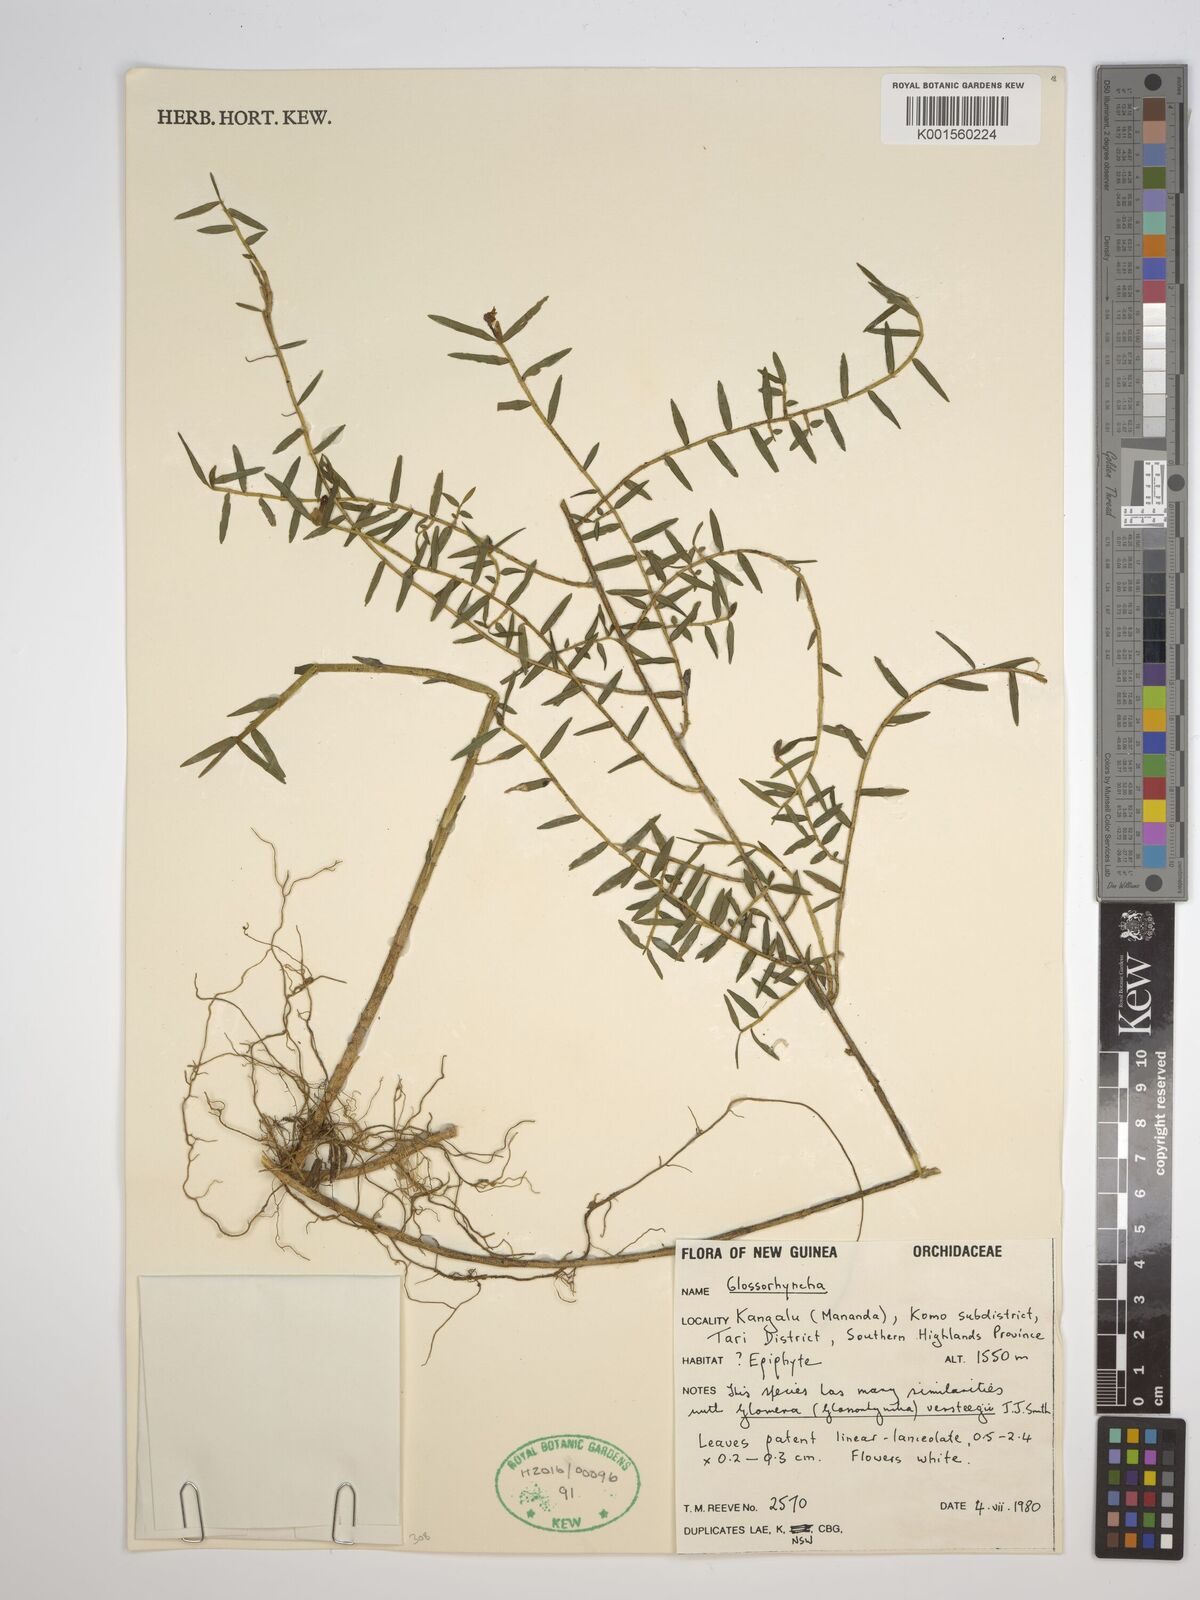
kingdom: Plantae
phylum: Tracheophyta
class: Liliopsida
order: Asparagales
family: Orchidaceae
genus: Glomera
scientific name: Glomera
